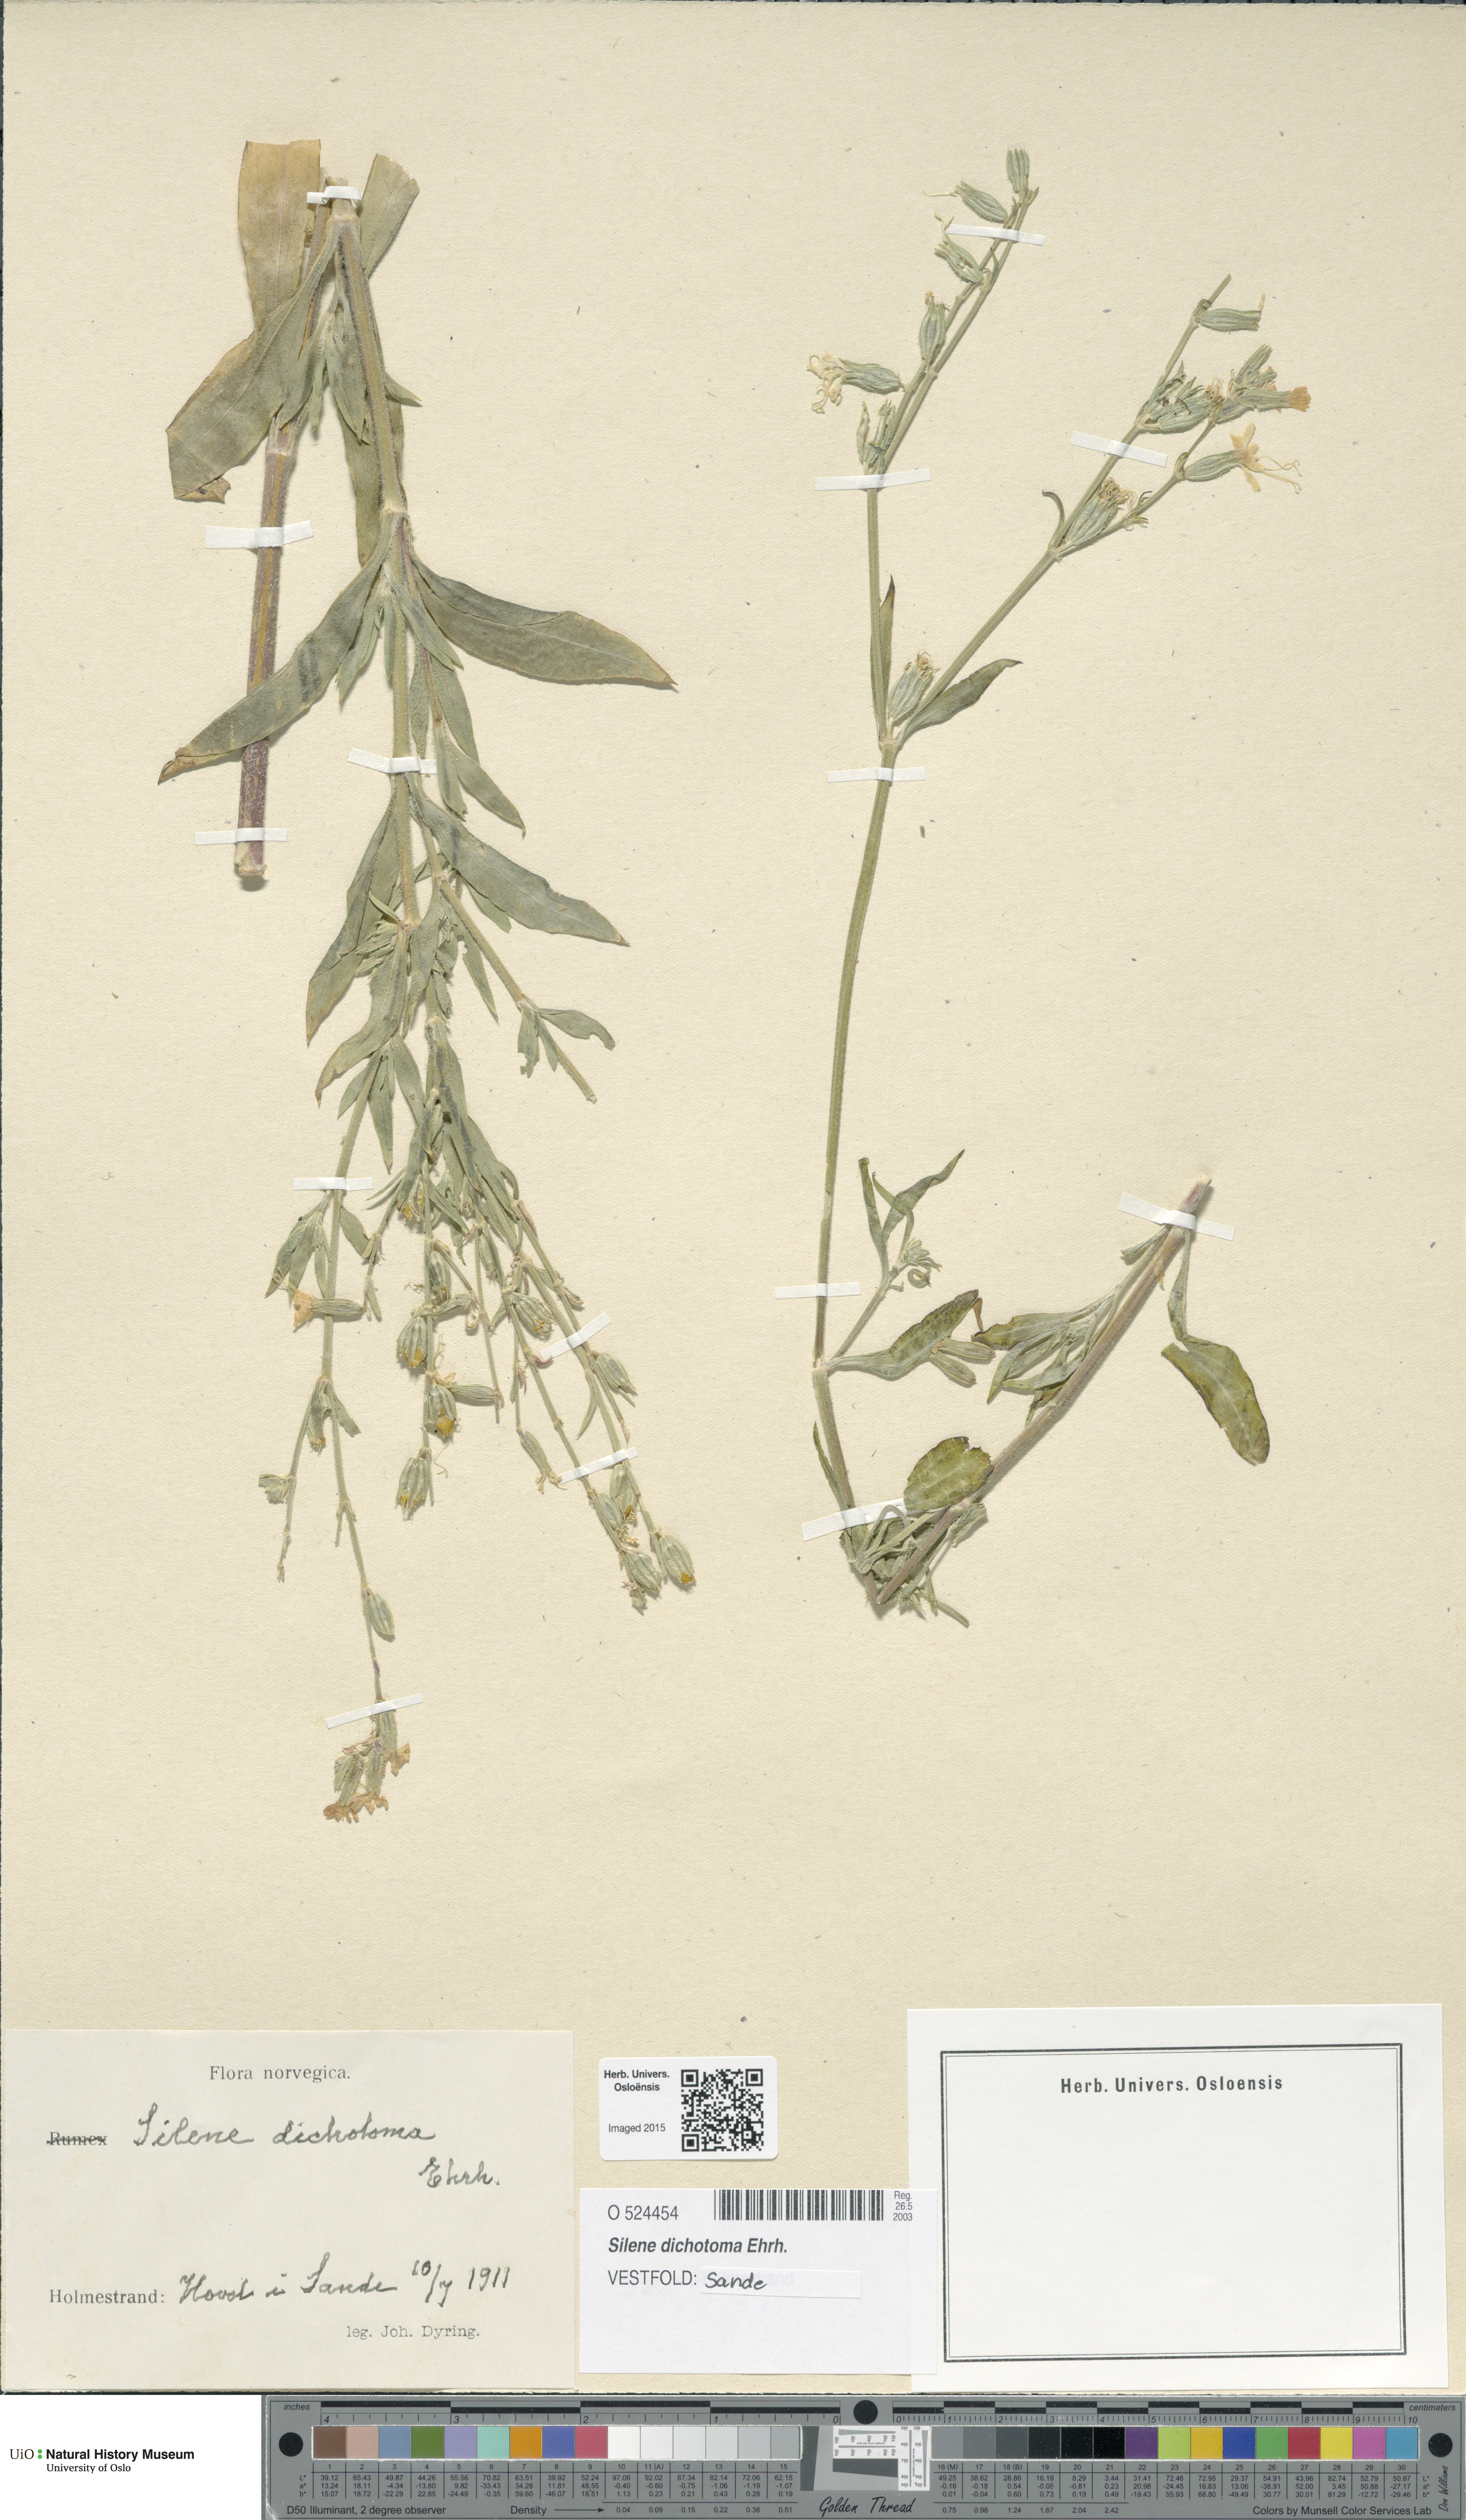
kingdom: Plantae
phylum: Tracheophyta
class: Magnoliopsida
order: Caryophyllales
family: Caryophyllaceae
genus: Silene
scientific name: Silene dichotoma
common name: Forked catchfly
